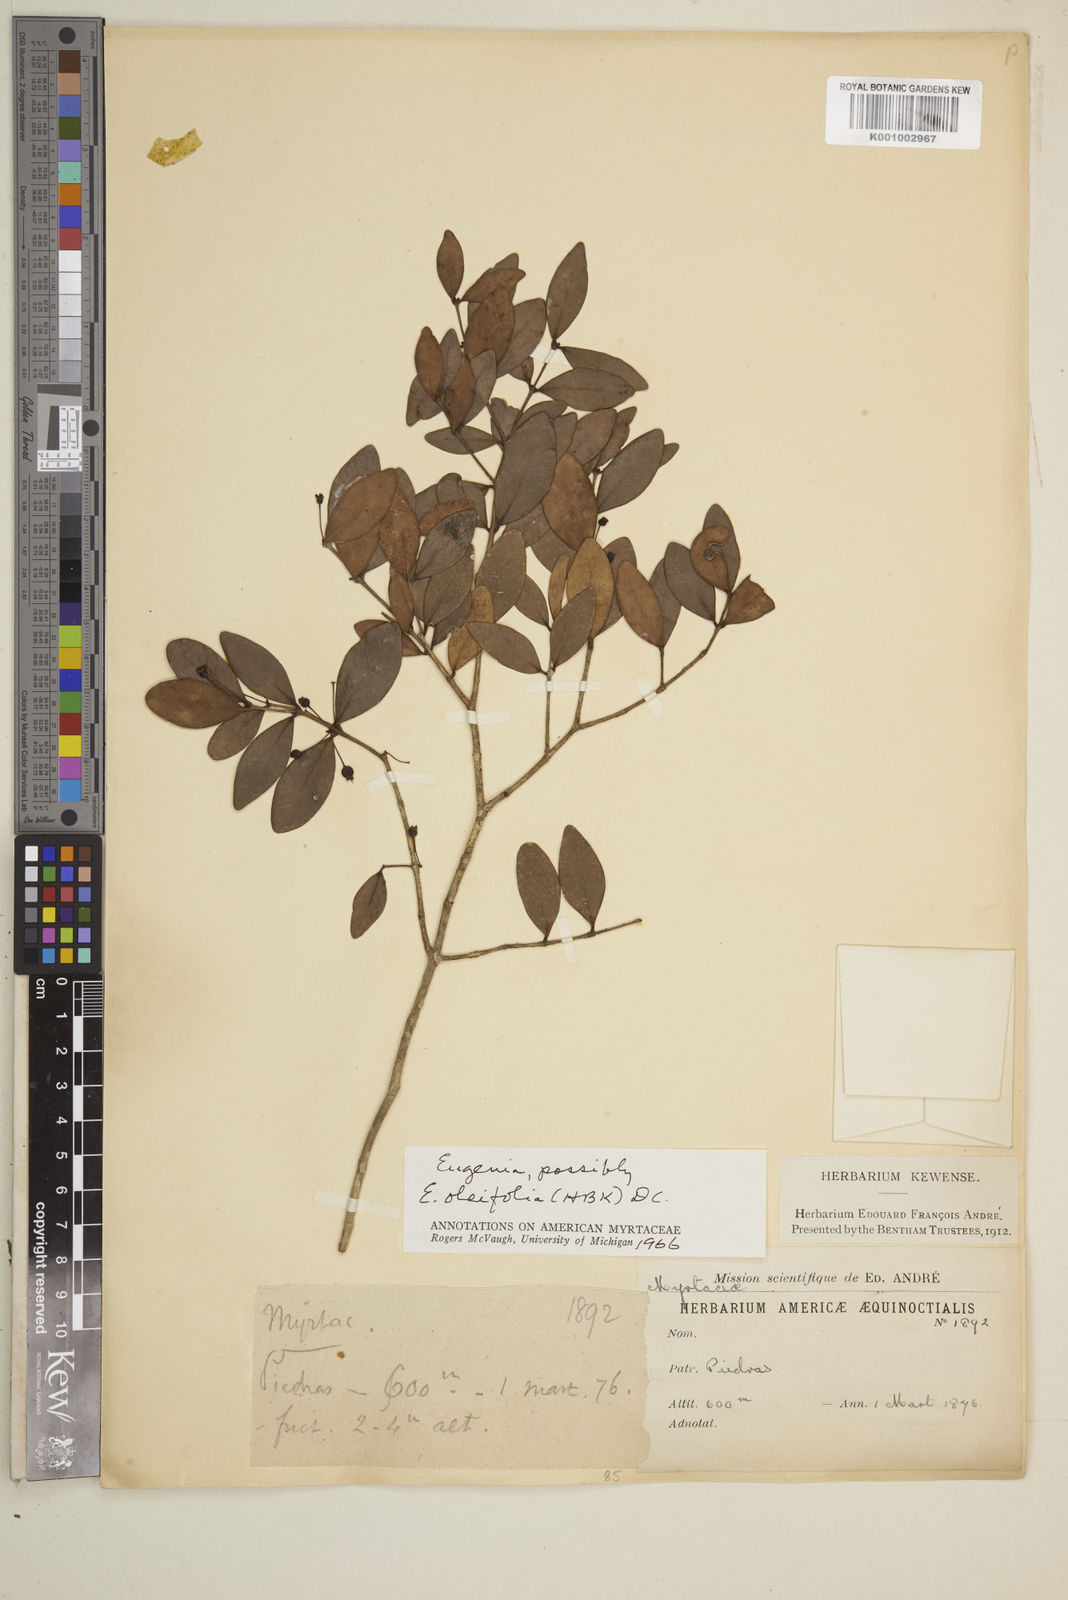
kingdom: Plantae
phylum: Tracheophyta
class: Magnoliopsida
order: Myrtales
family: Myrtaceae
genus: Eugenia
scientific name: Eugenia punicifolia
